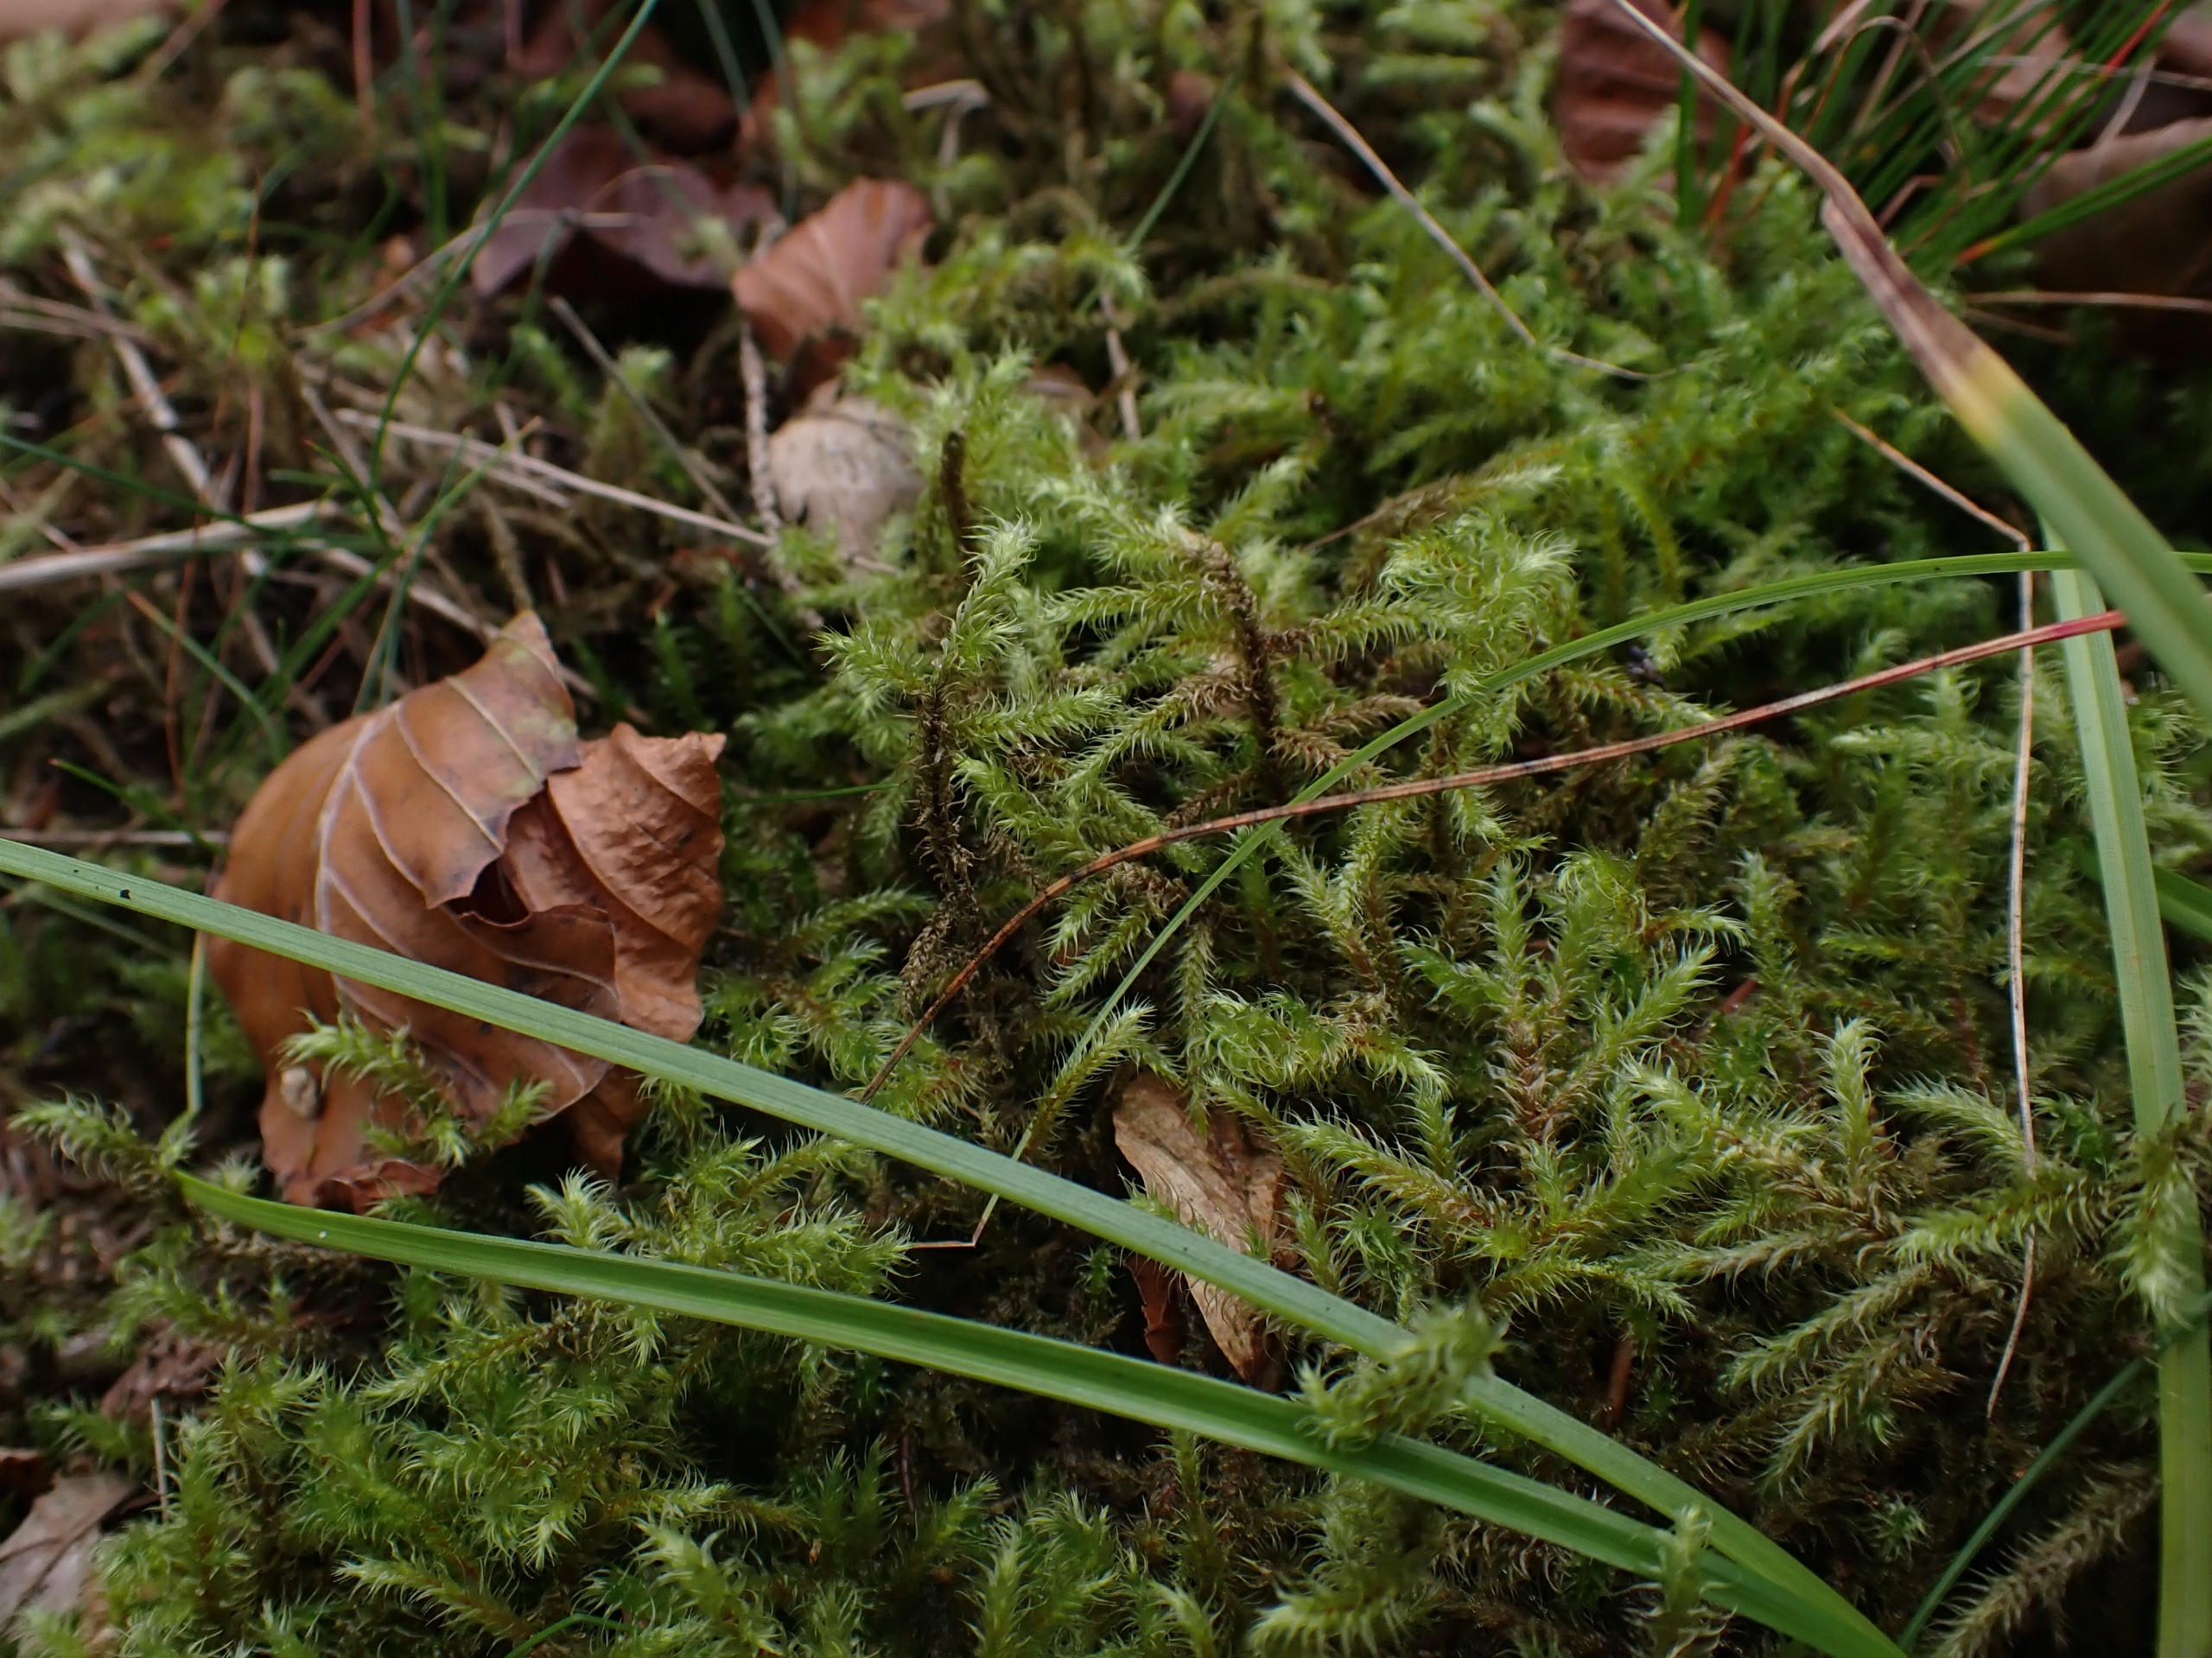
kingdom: Plantae
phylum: Bryophyta
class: Bryopsida
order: Hypnales
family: Hylocomiaceae
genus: Rhytidiadelphus
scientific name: Rhytidiadelphus loreus
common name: Ulvefod-kransemos
